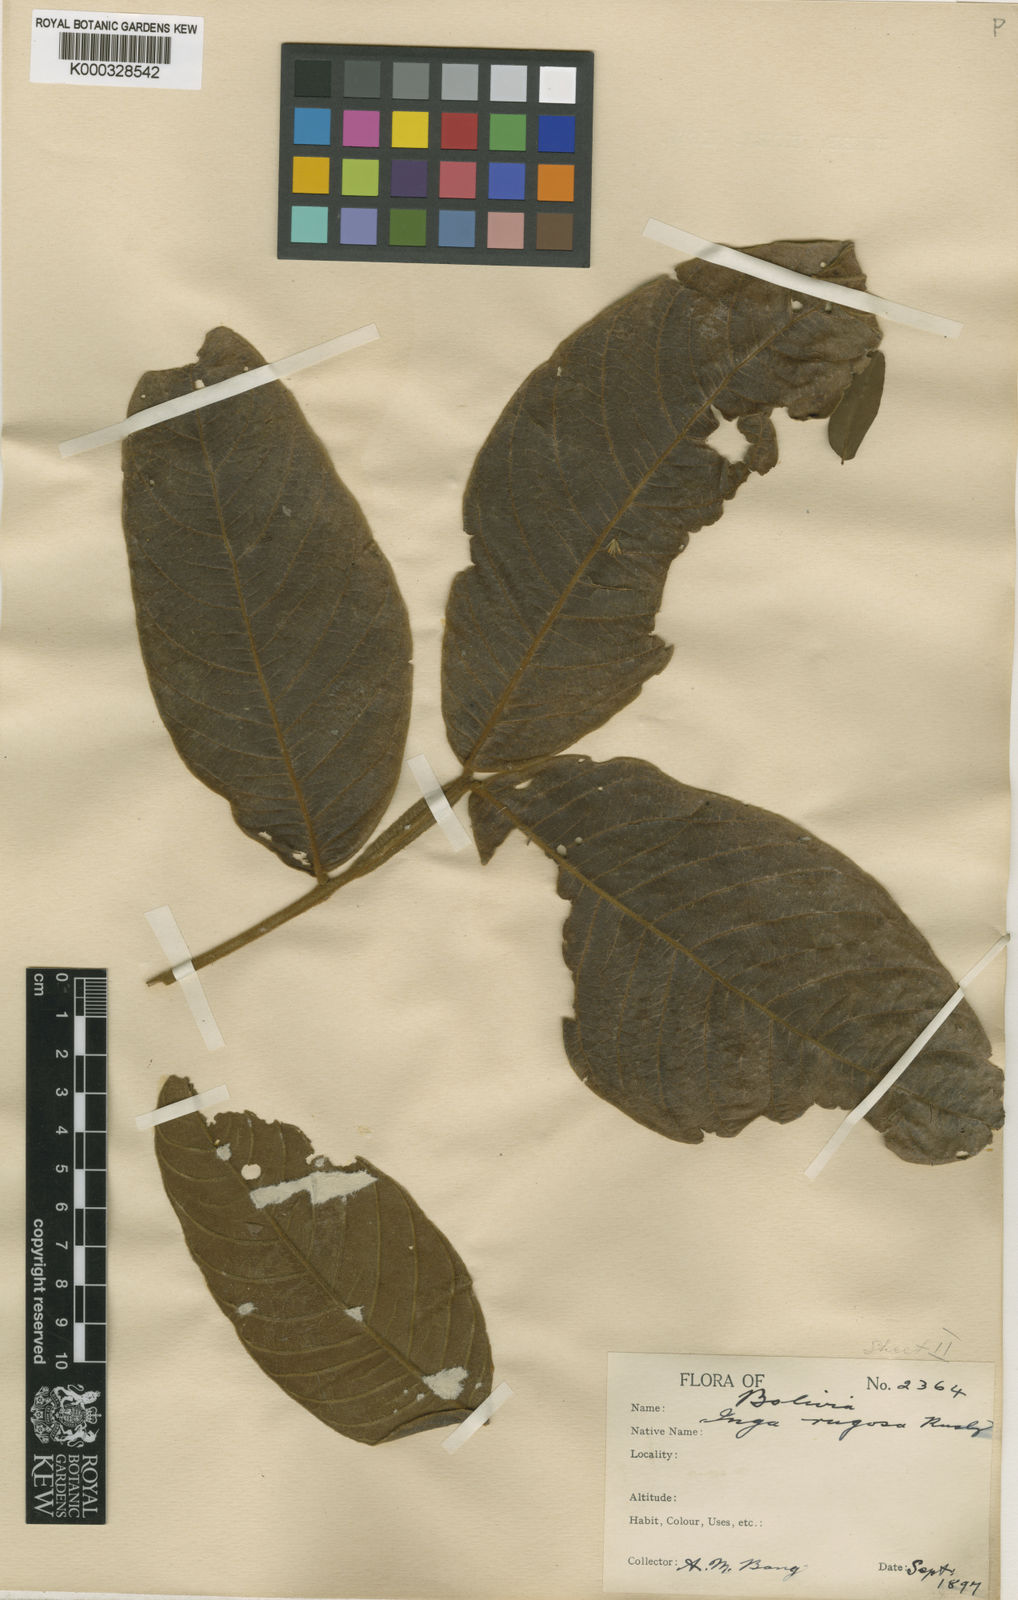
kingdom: Plantae
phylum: Tracheophyta
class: Magnoliopsida
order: Fabales
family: Fabaceae
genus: Inga
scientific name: Inga fendleriana
